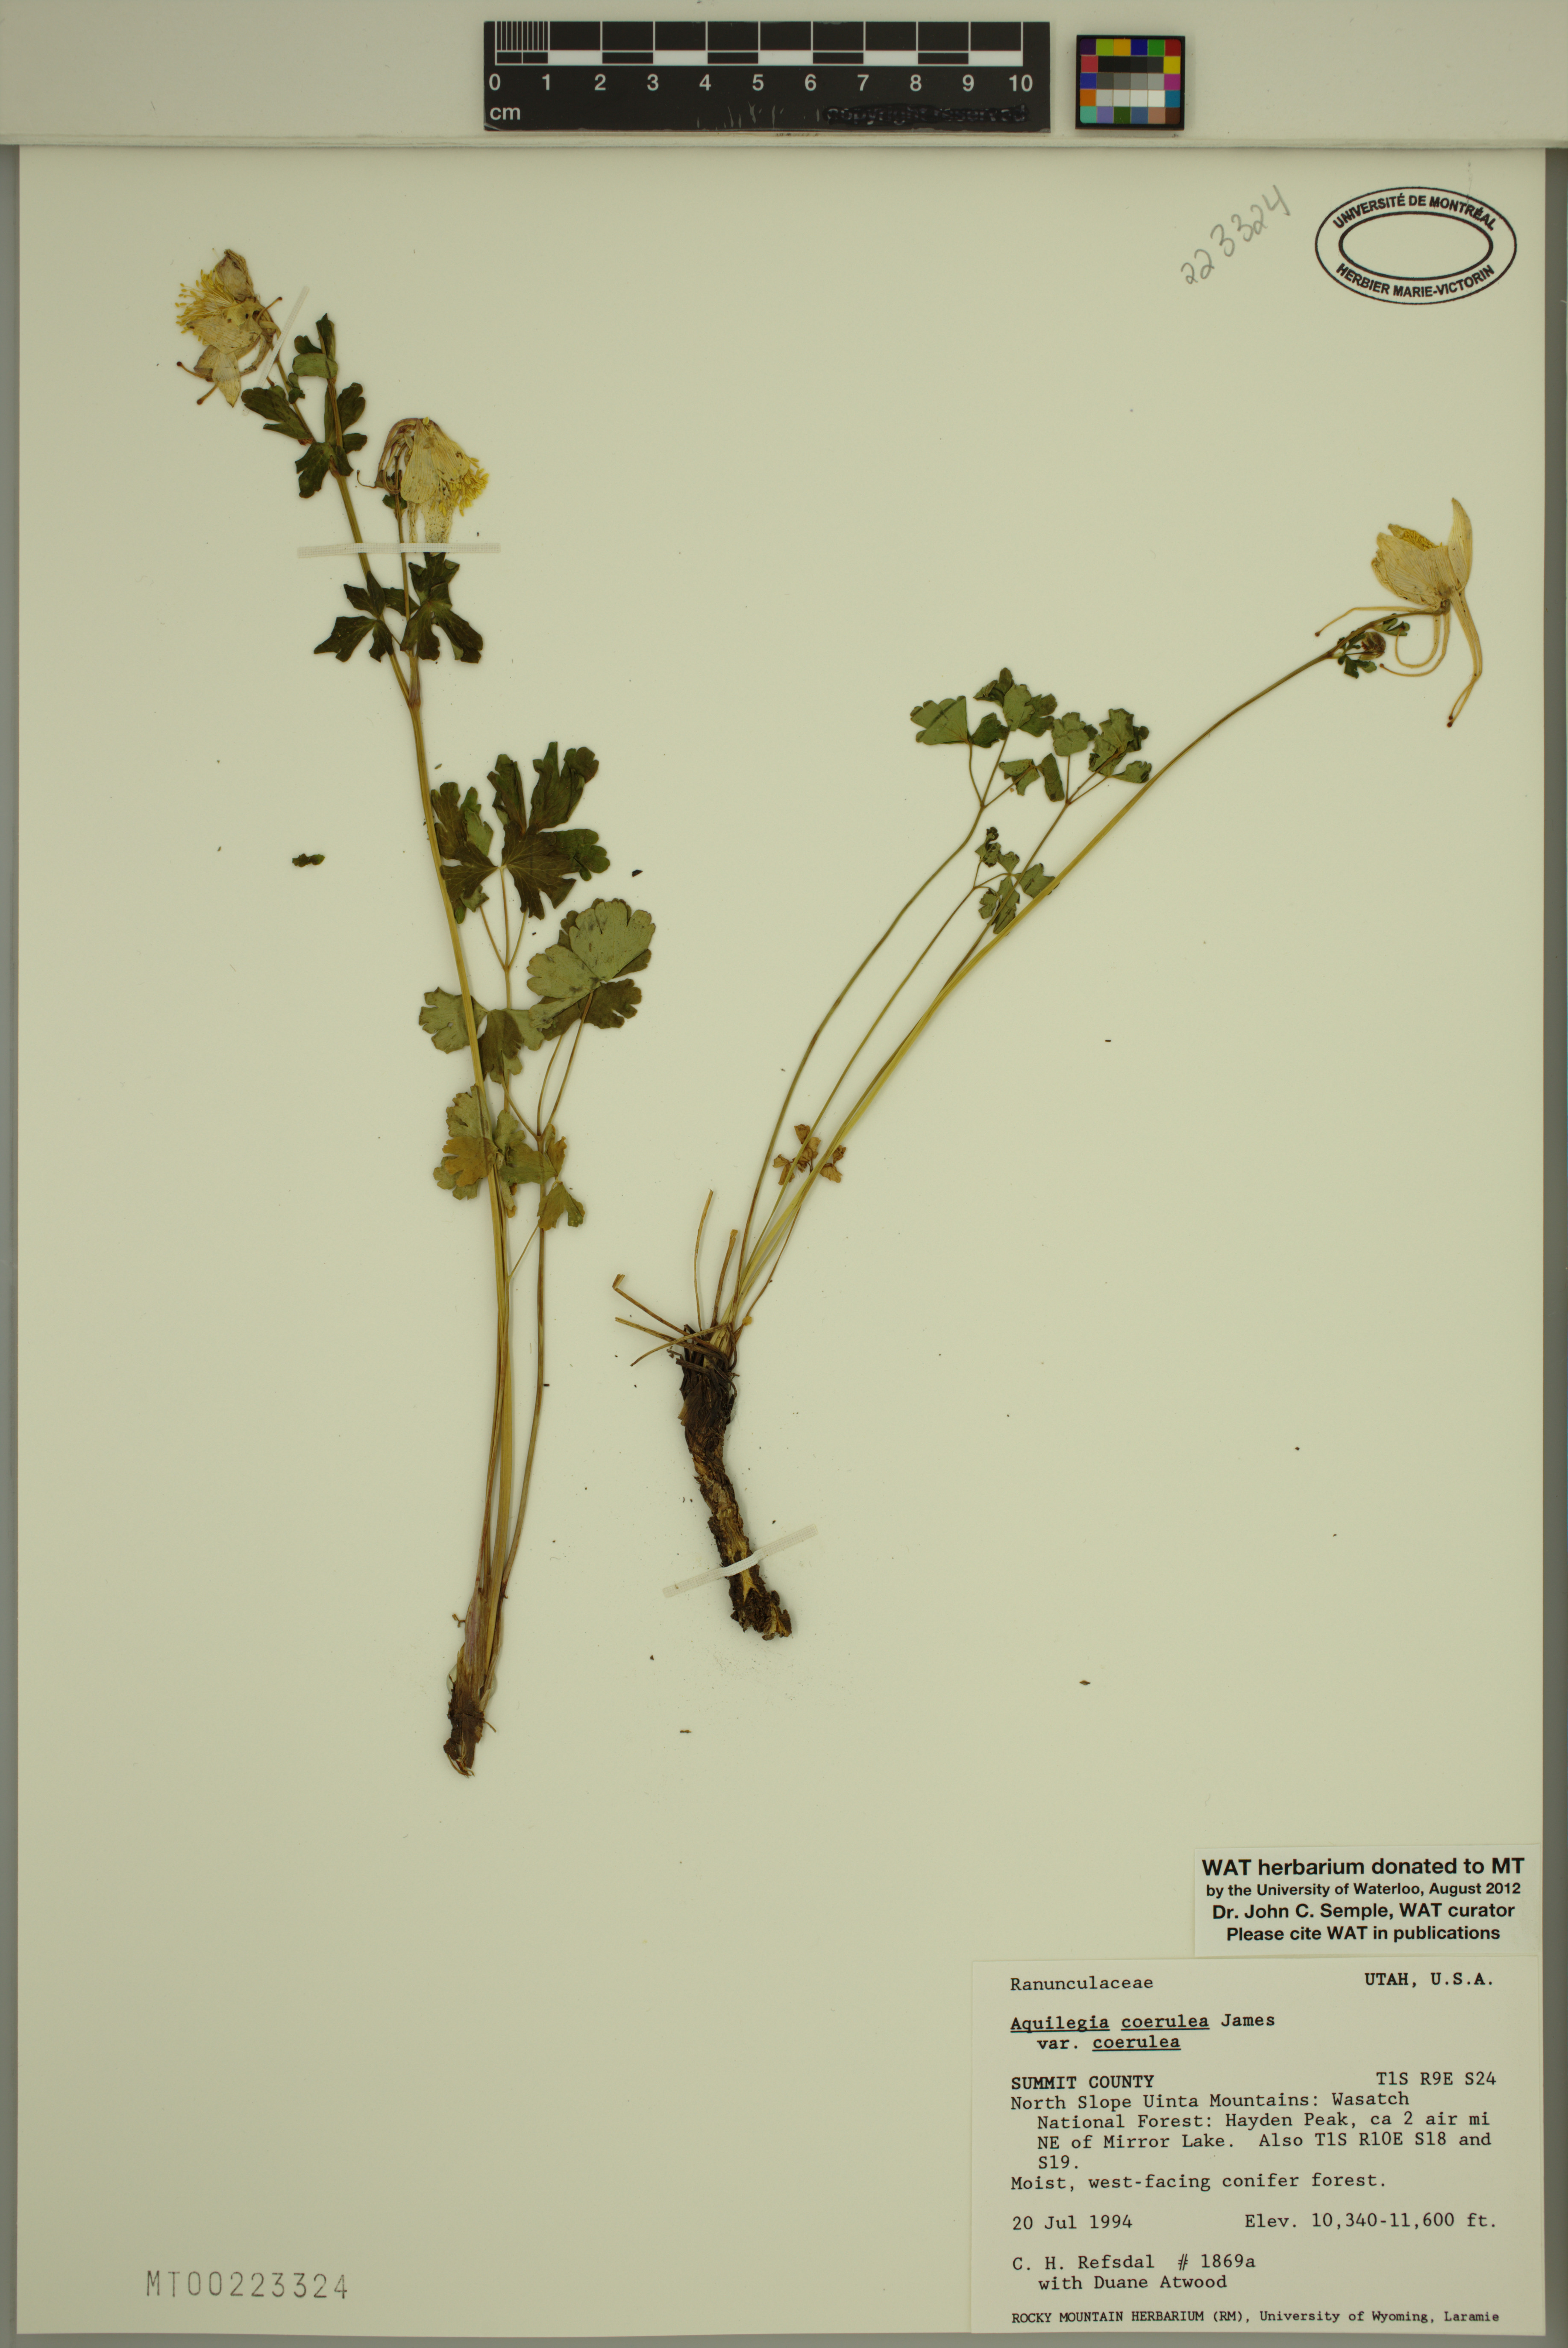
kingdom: Plantae
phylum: Tracheophyta
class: Magnoliopsida
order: Ranunculales
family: Ranunculaceae
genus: Aquilegia
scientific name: Aquilegia coerulea
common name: Rocky mountain columbine
